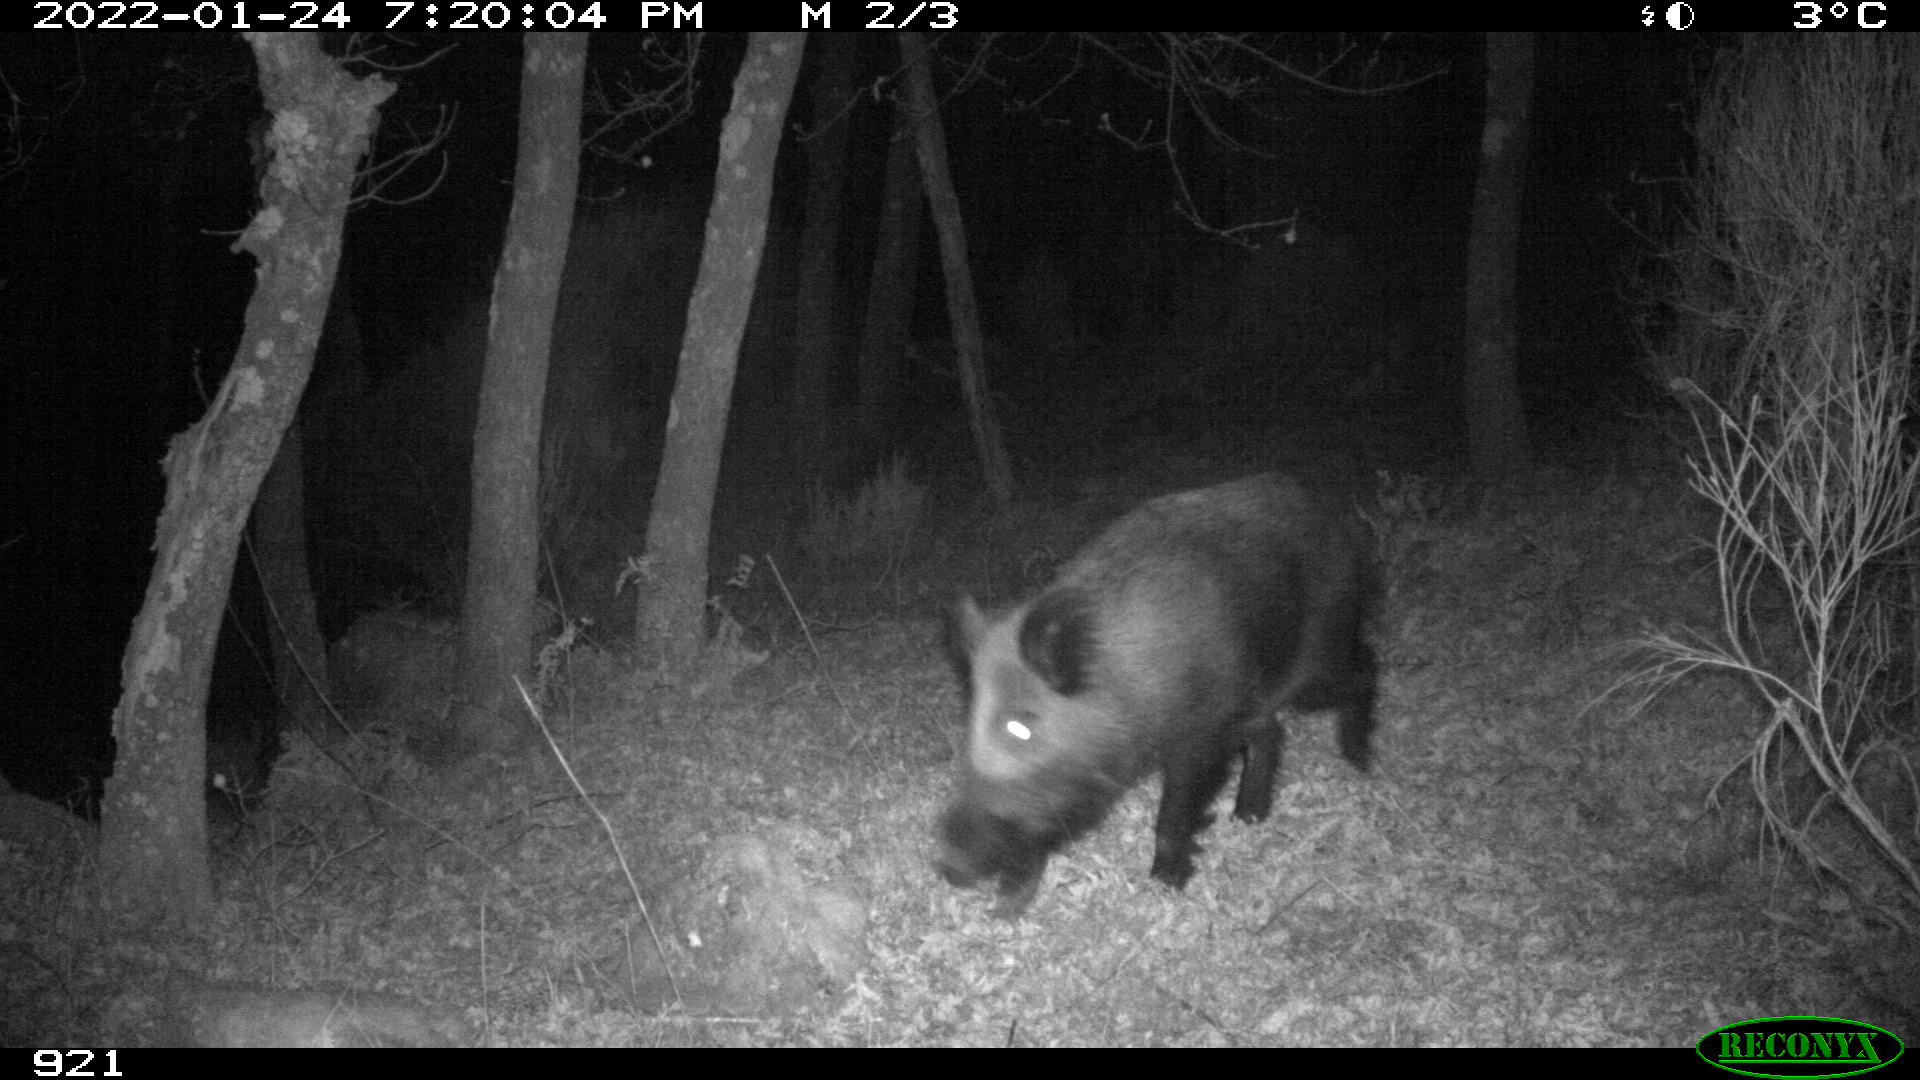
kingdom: Animalia
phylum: Chordata
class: Mammalia
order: Artiodactyla
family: Suidae
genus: Sus
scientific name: Sus scrofa
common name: Wild boar
